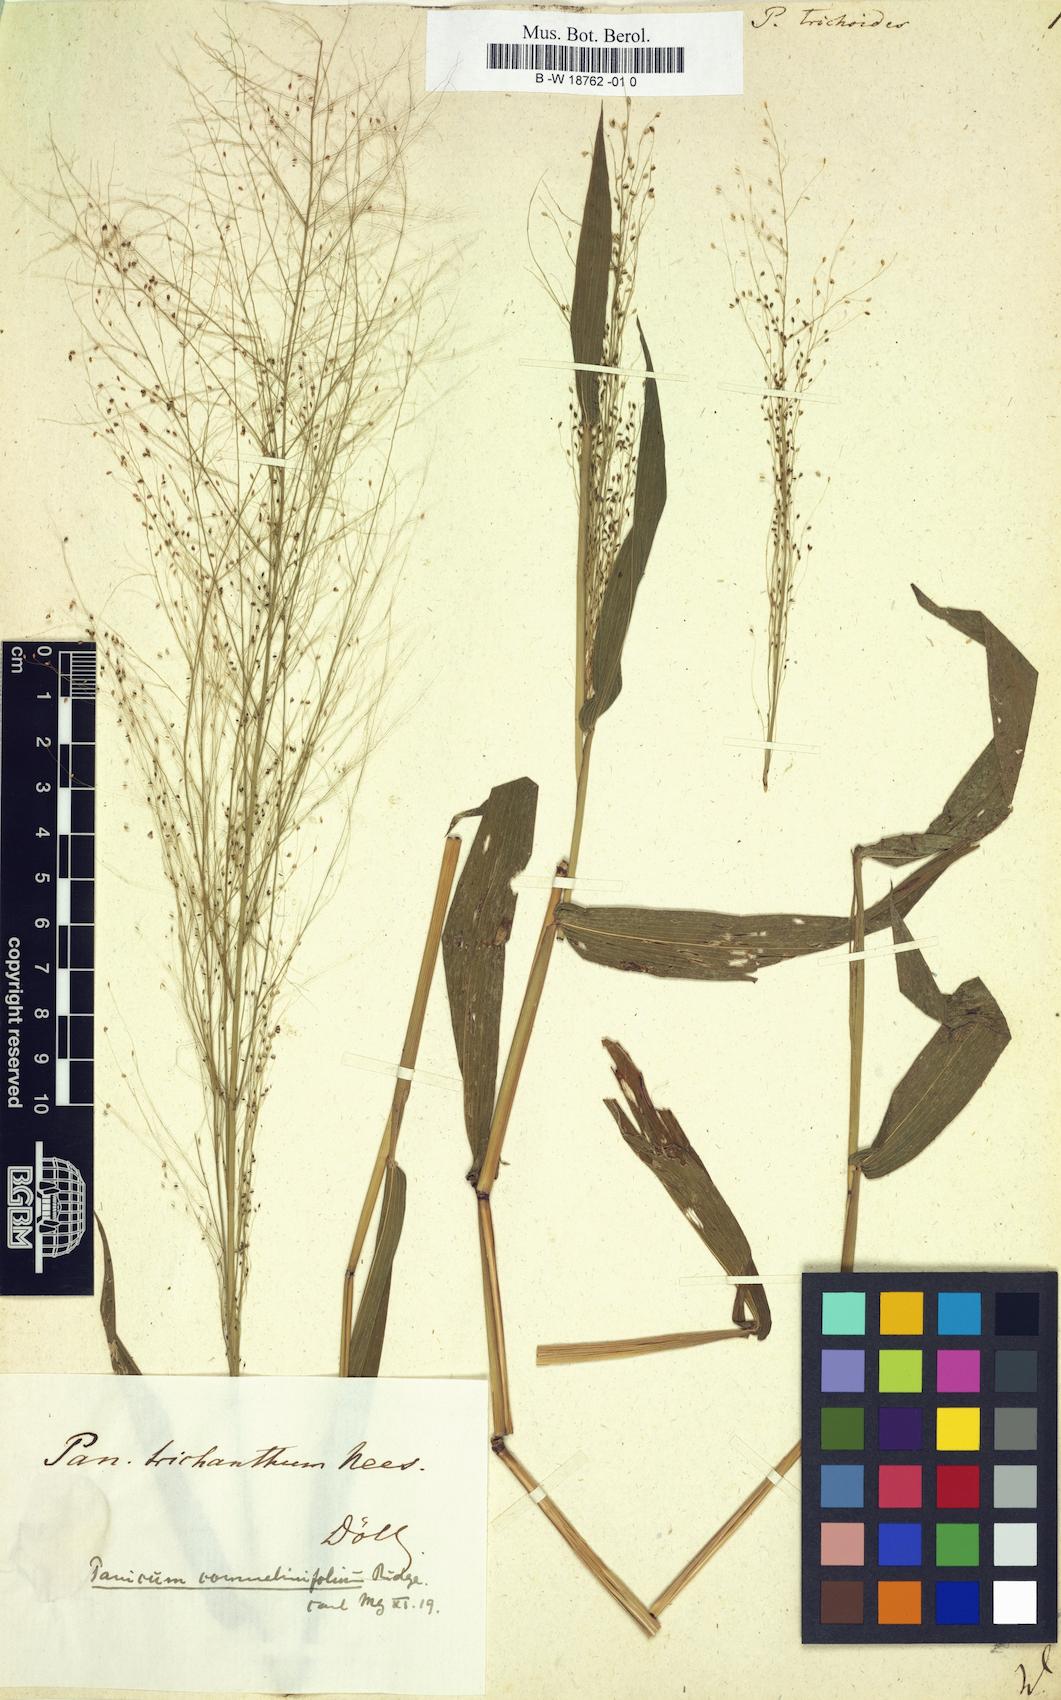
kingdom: Plantae
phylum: Tracheophyta
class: Liliopsida
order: Poales
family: Poaceae
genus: Panicum
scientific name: Panicum trichoides
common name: Tickle grass
